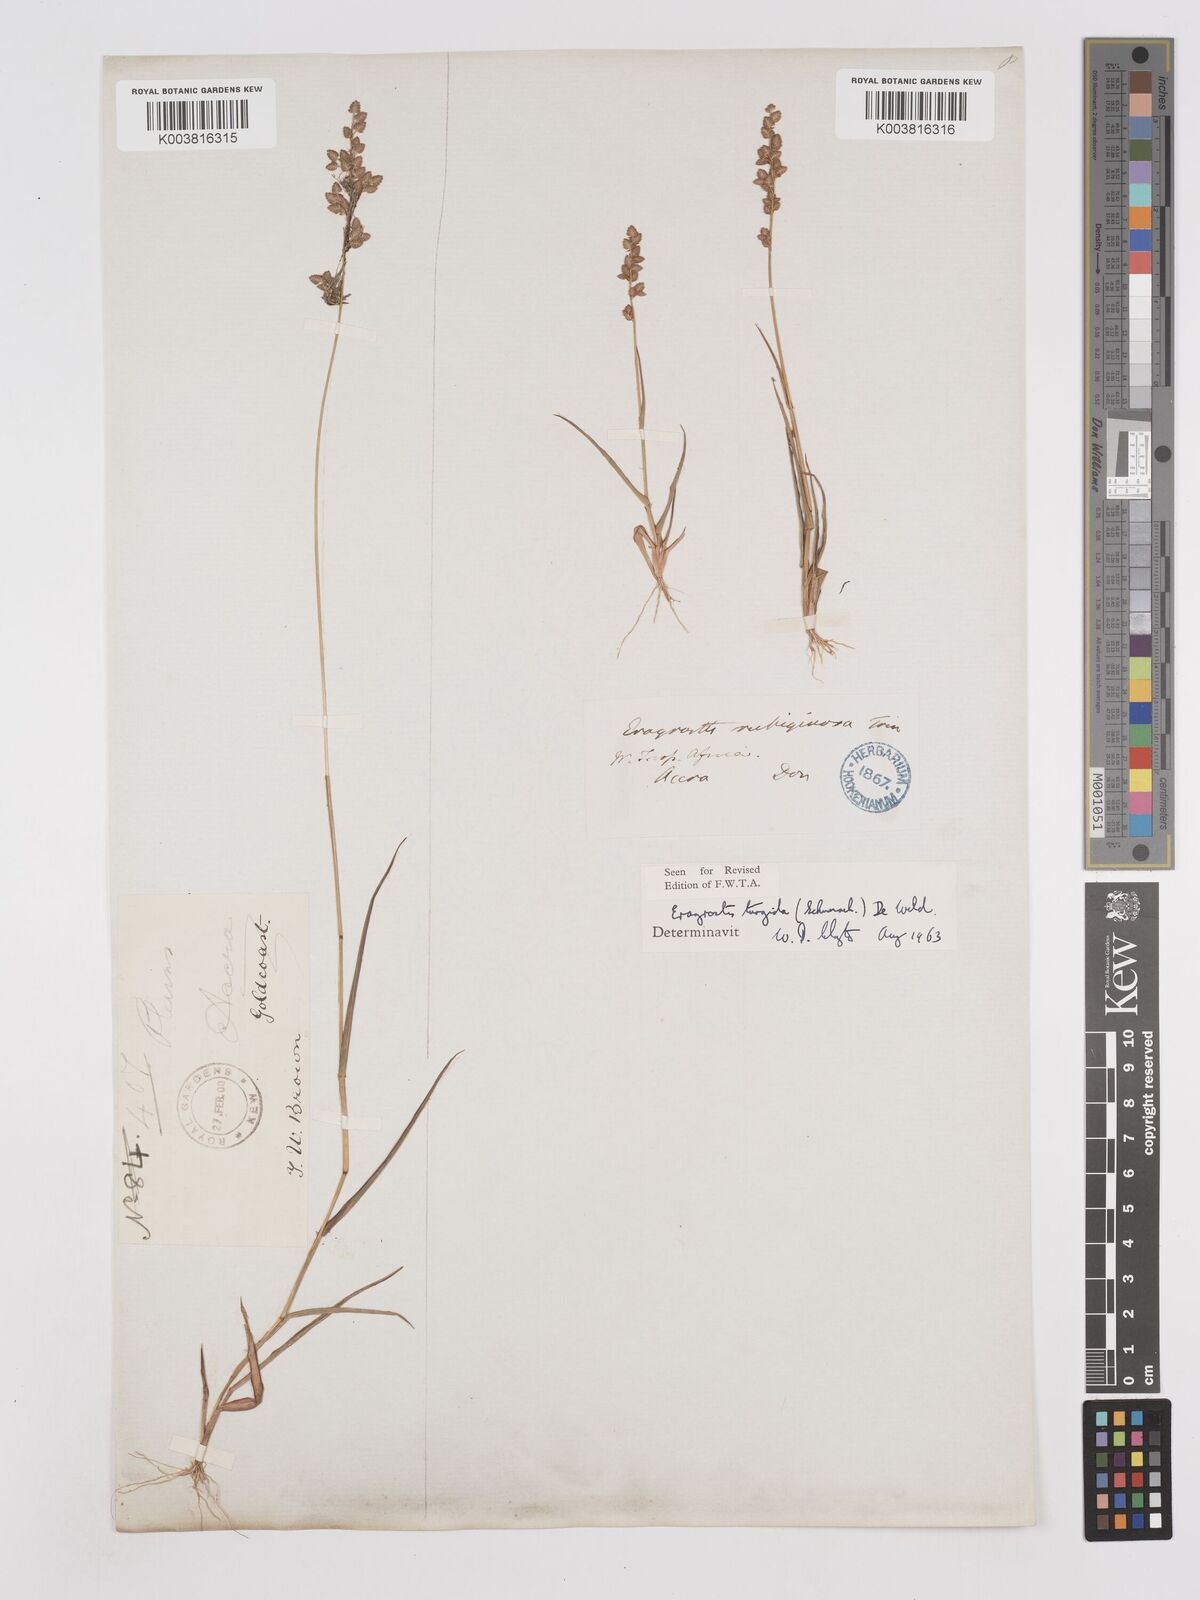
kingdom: Plantae
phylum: Tracheophyta
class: Liliopsida
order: Poales
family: Poaceae
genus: Eragrostis
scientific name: Eragrostis turgida
